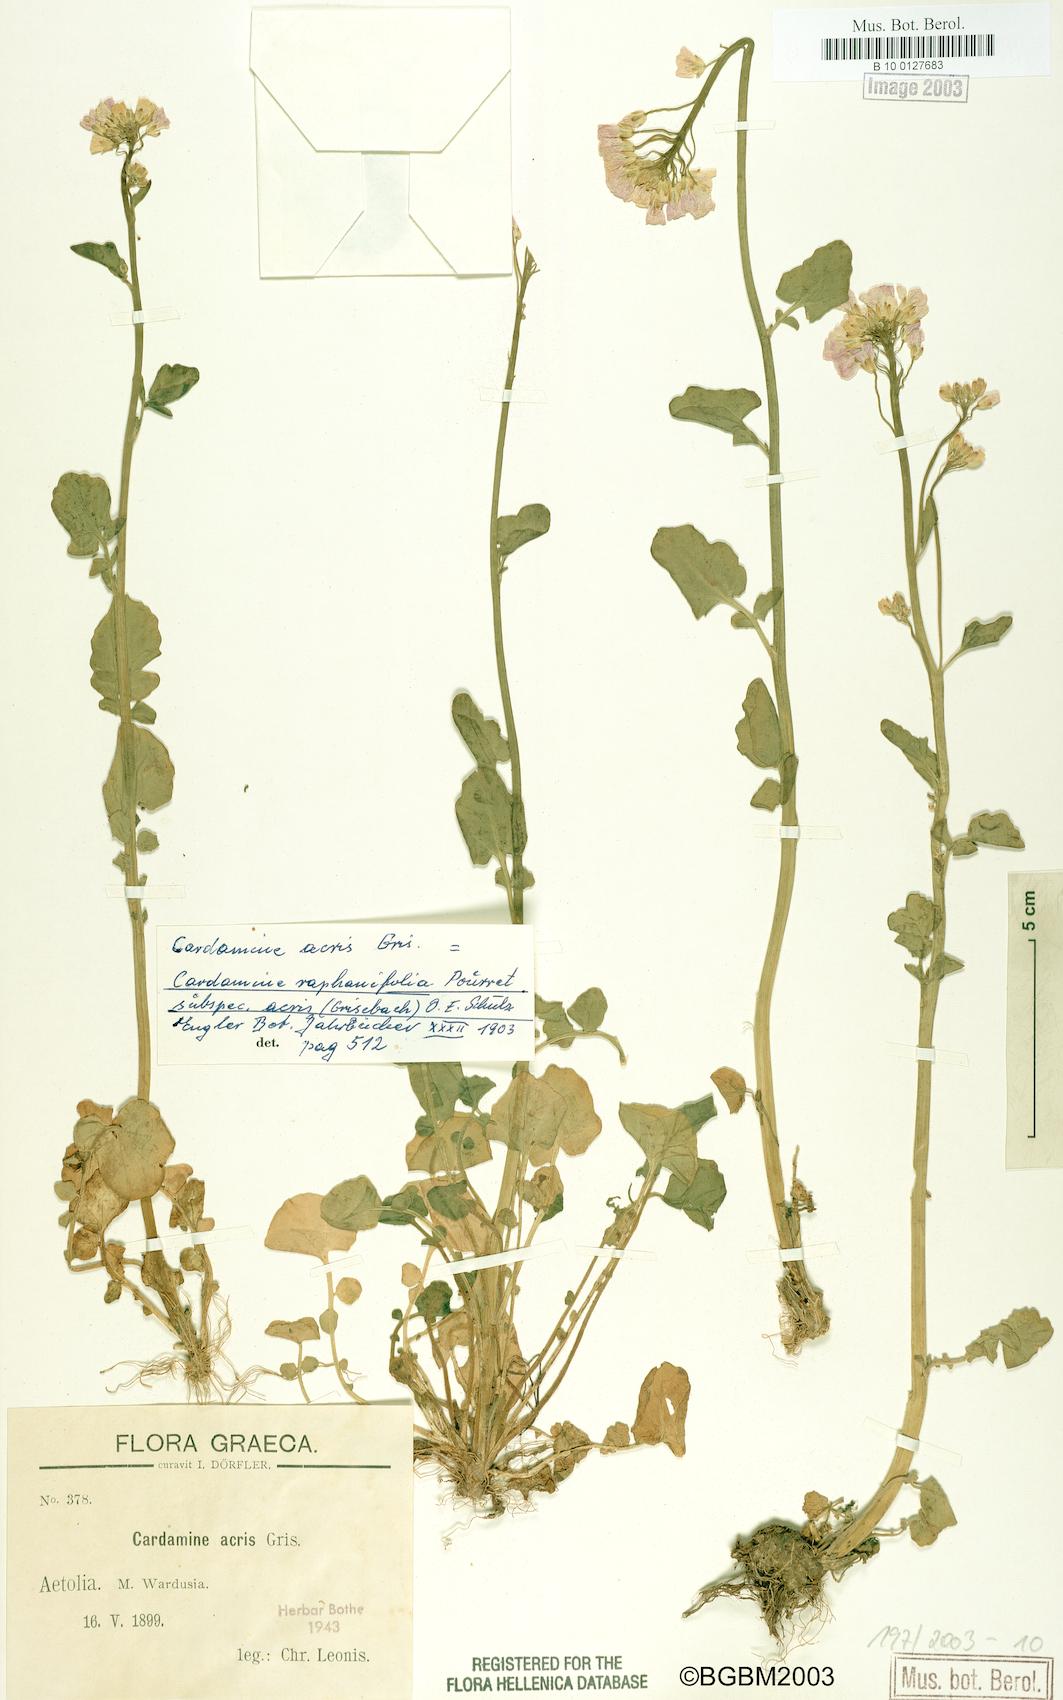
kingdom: Plantae
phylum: Tracheophyta
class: Magnoliopsida
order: Brassicales
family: Brassicaceae
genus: Cardamine
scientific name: Cardamine raphanifolia
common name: Greater cuckooflower
